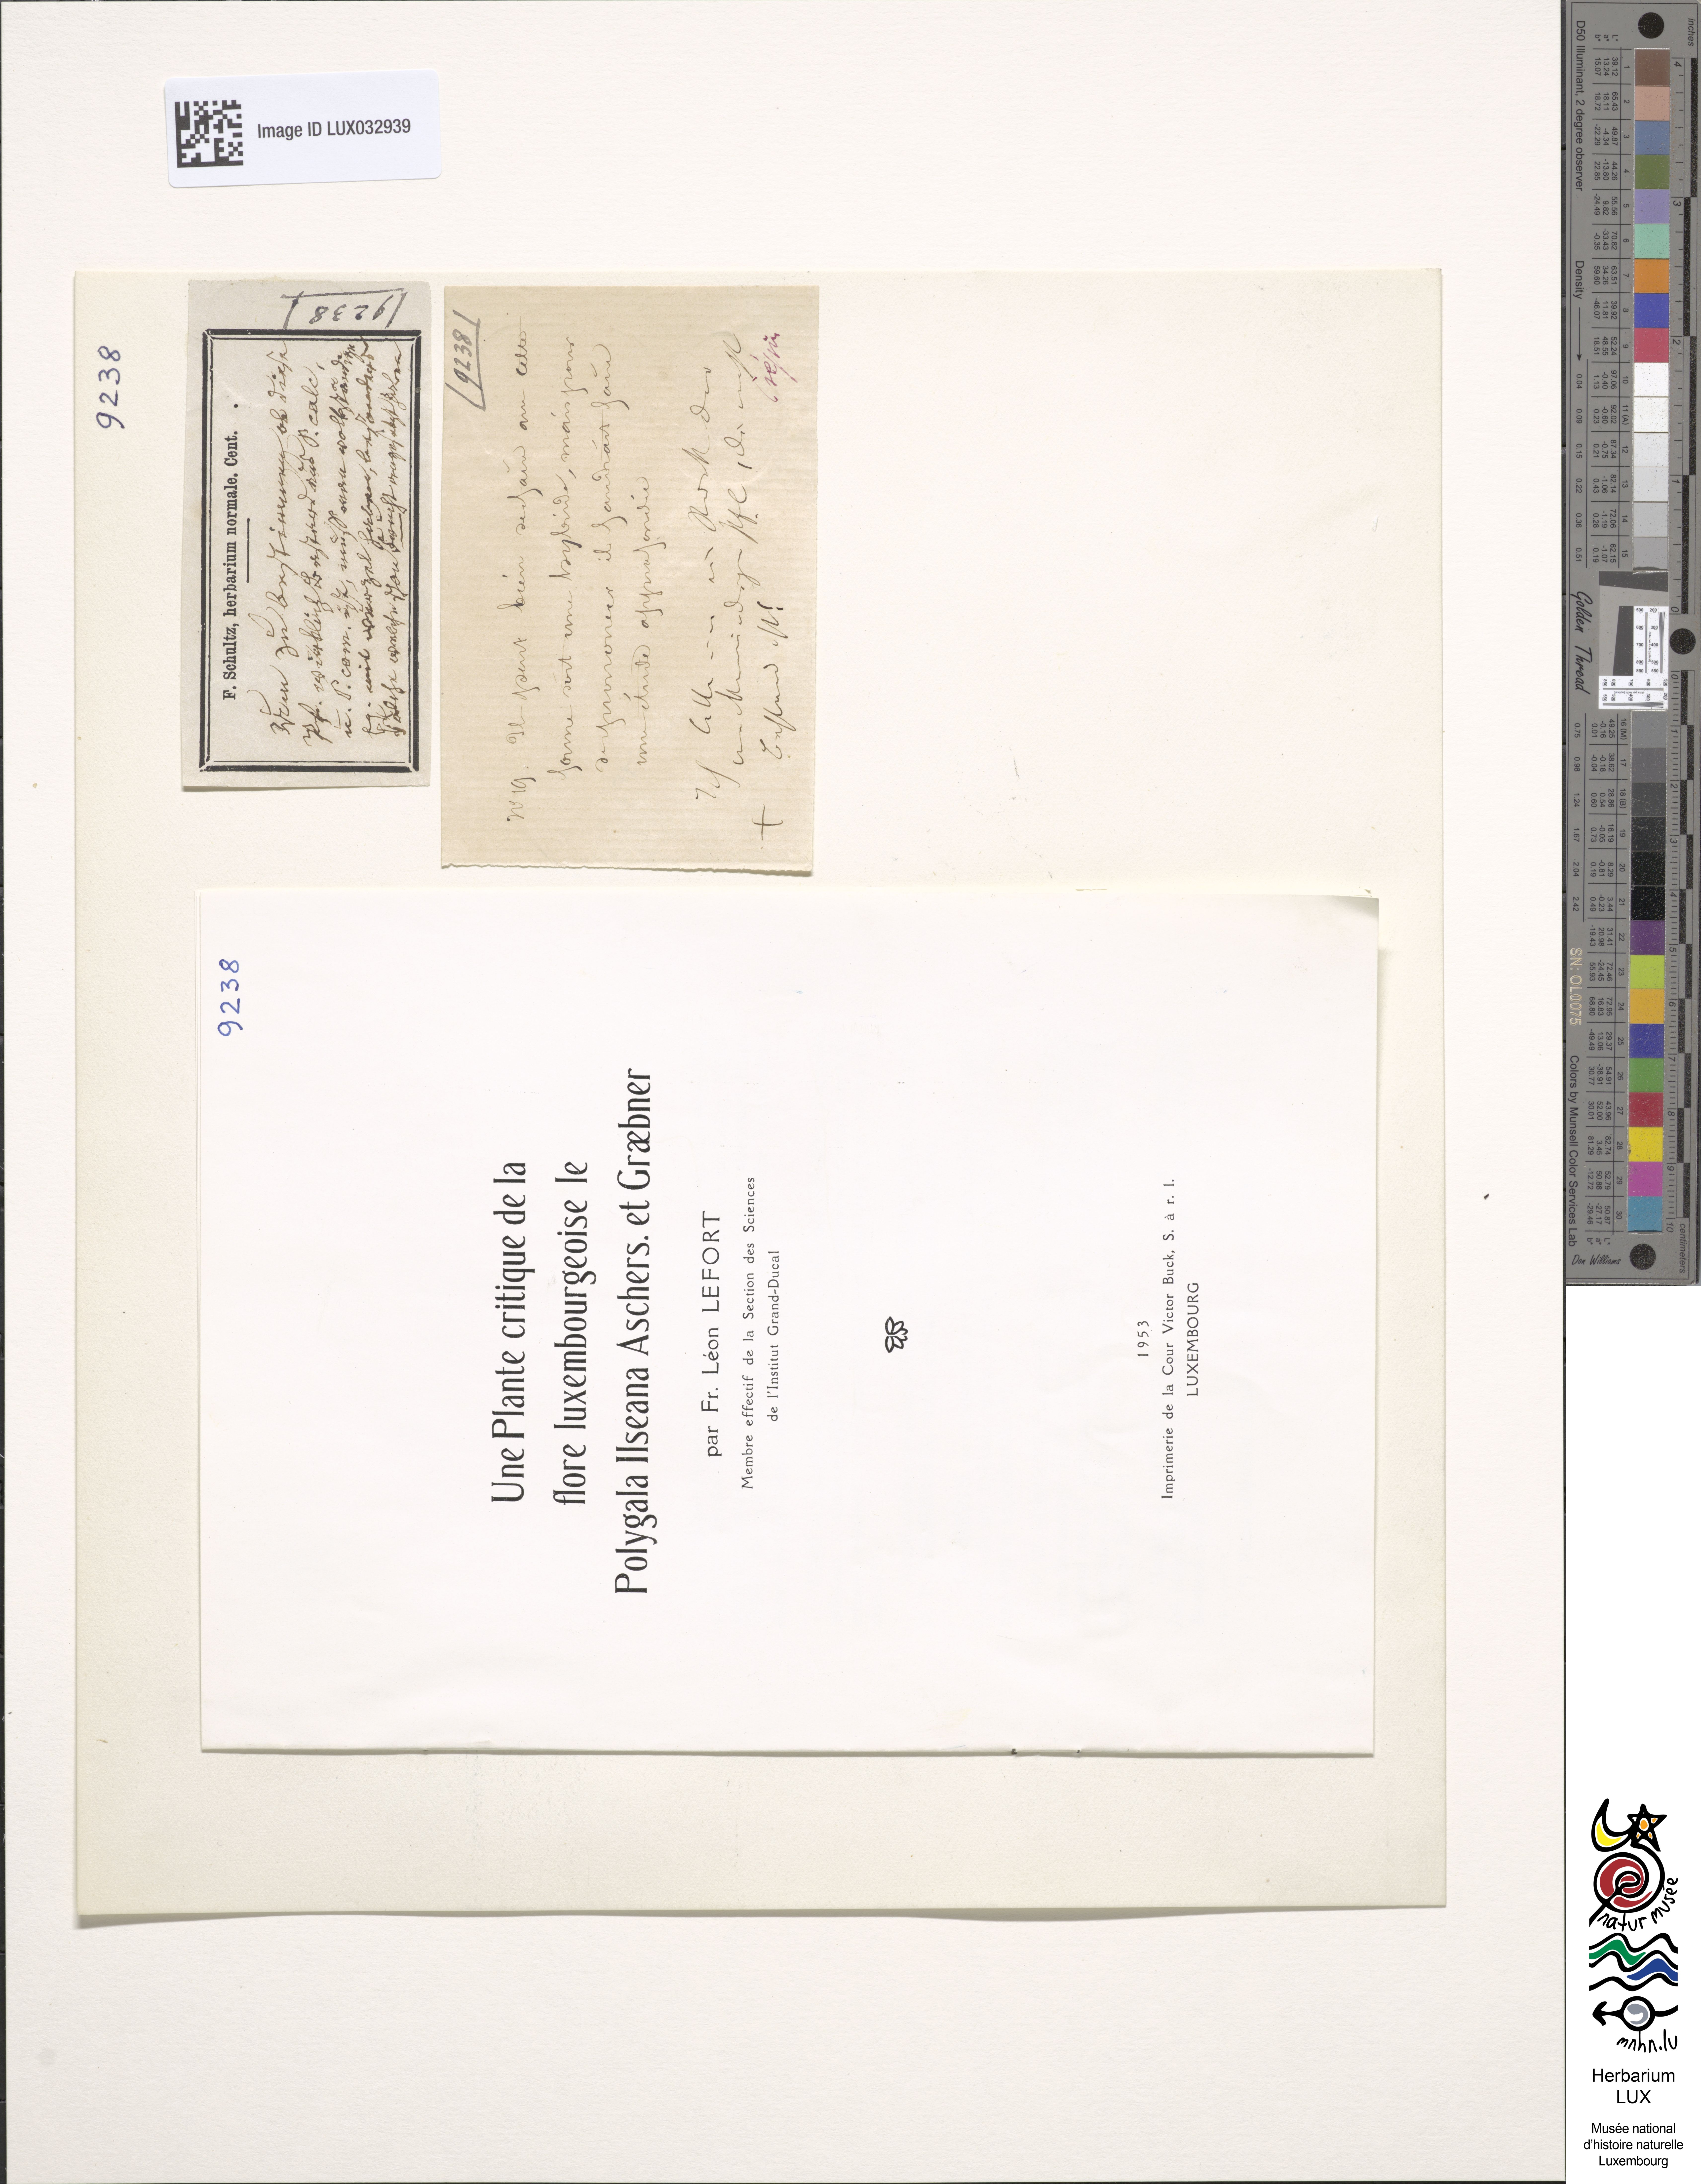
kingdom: Plantae
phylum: Tracheophyta
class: Magnoliopsida
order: Fabales
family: Polygalaceae
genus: Polygala
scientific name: Polygala ilseana
